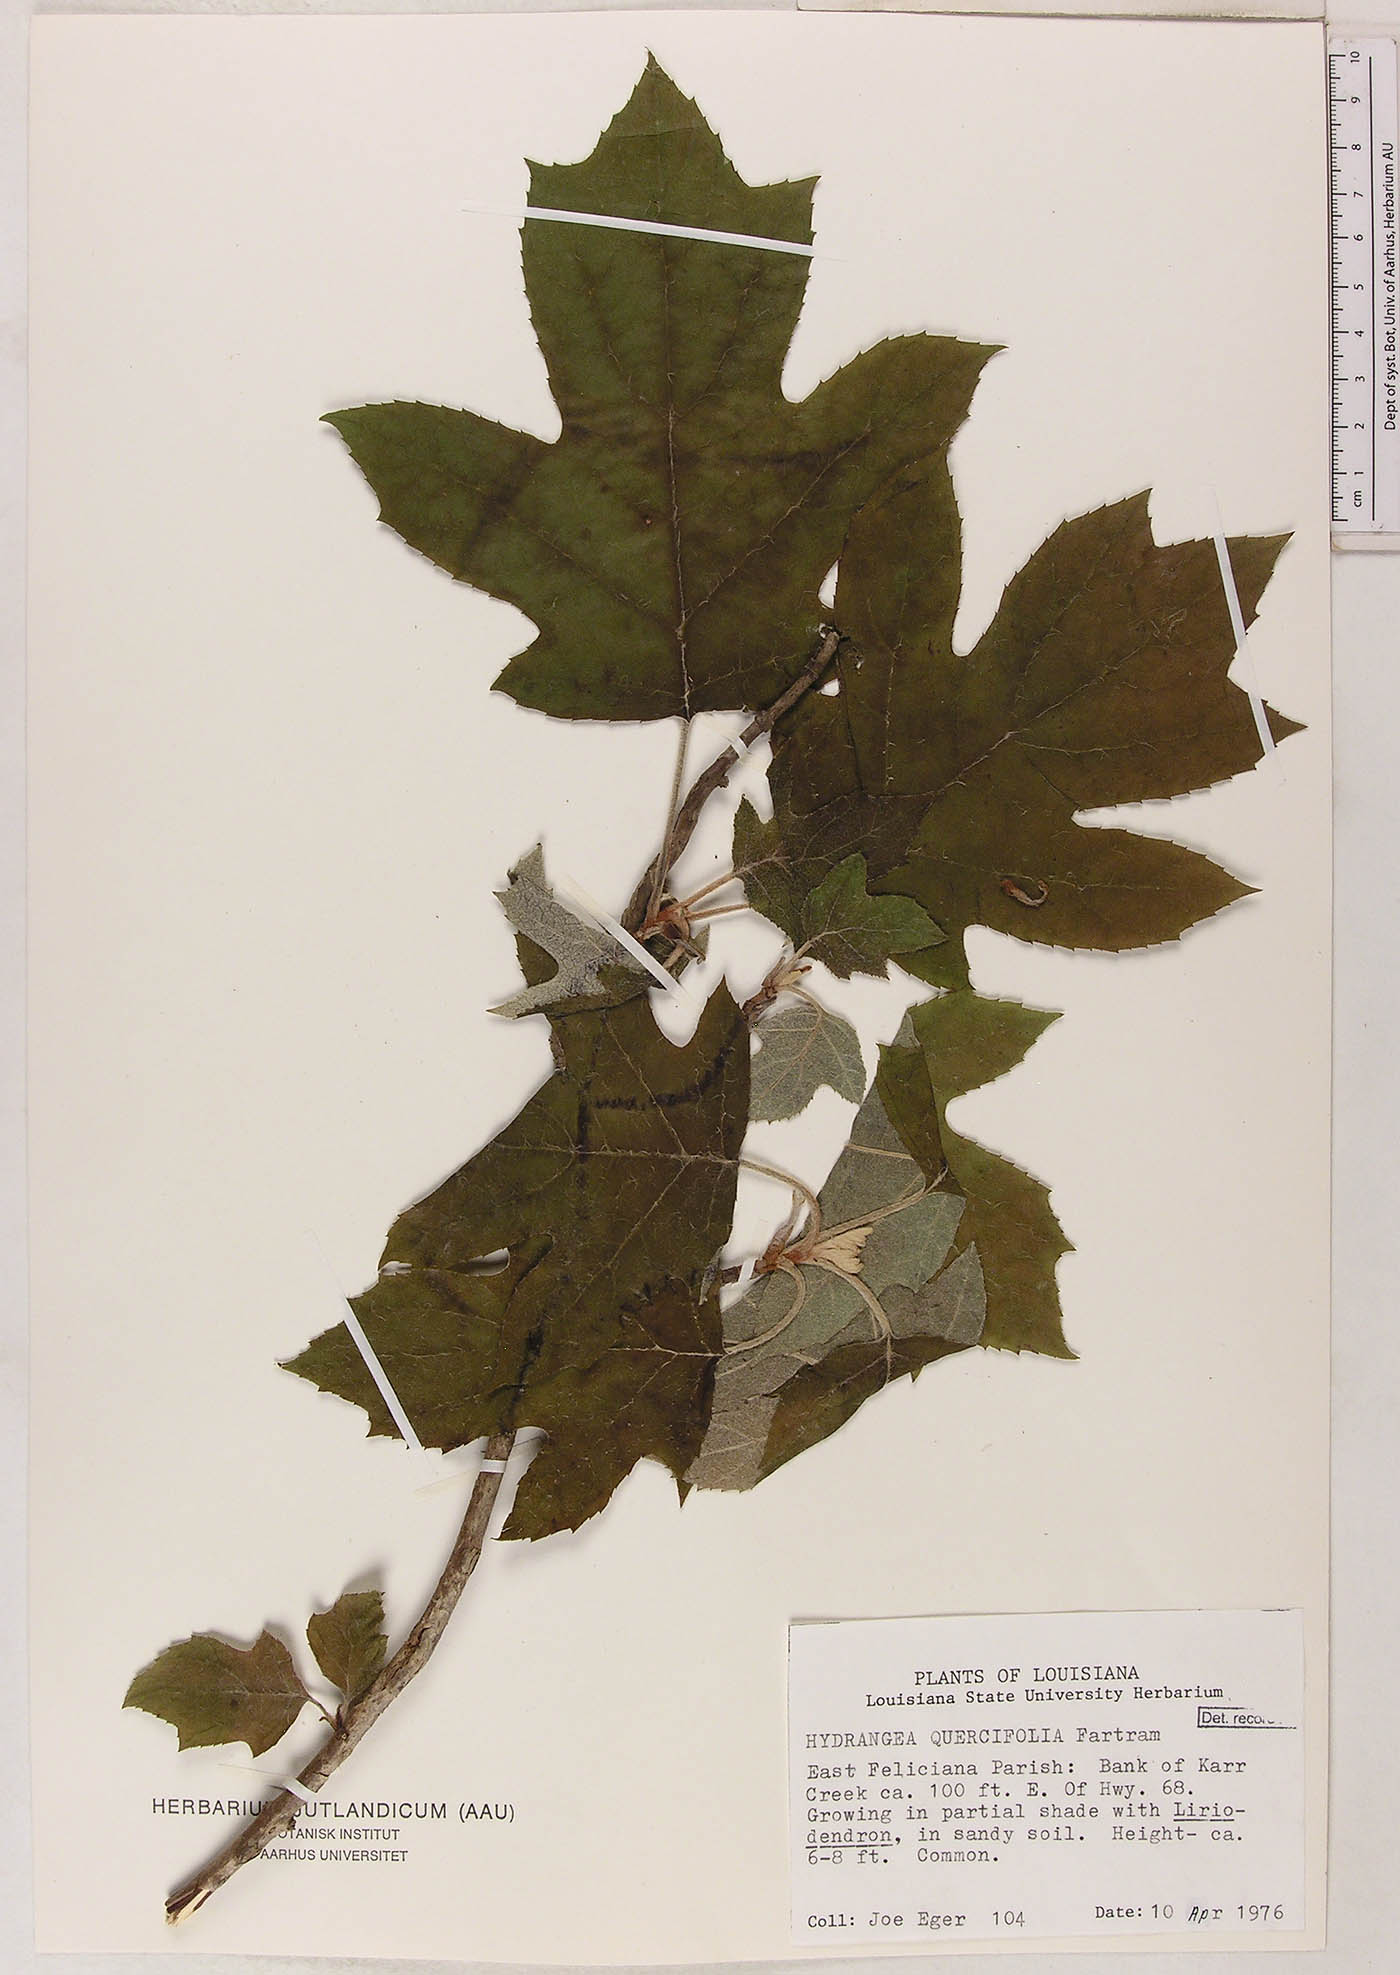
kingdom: Plantae
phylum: Tracheophyta
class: Magnoliopsida
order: Cornales
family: Hydrangeaceae
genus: Hydrangea
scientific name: Hydrangea quercifolia
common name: Oak-leaf hydrangea
